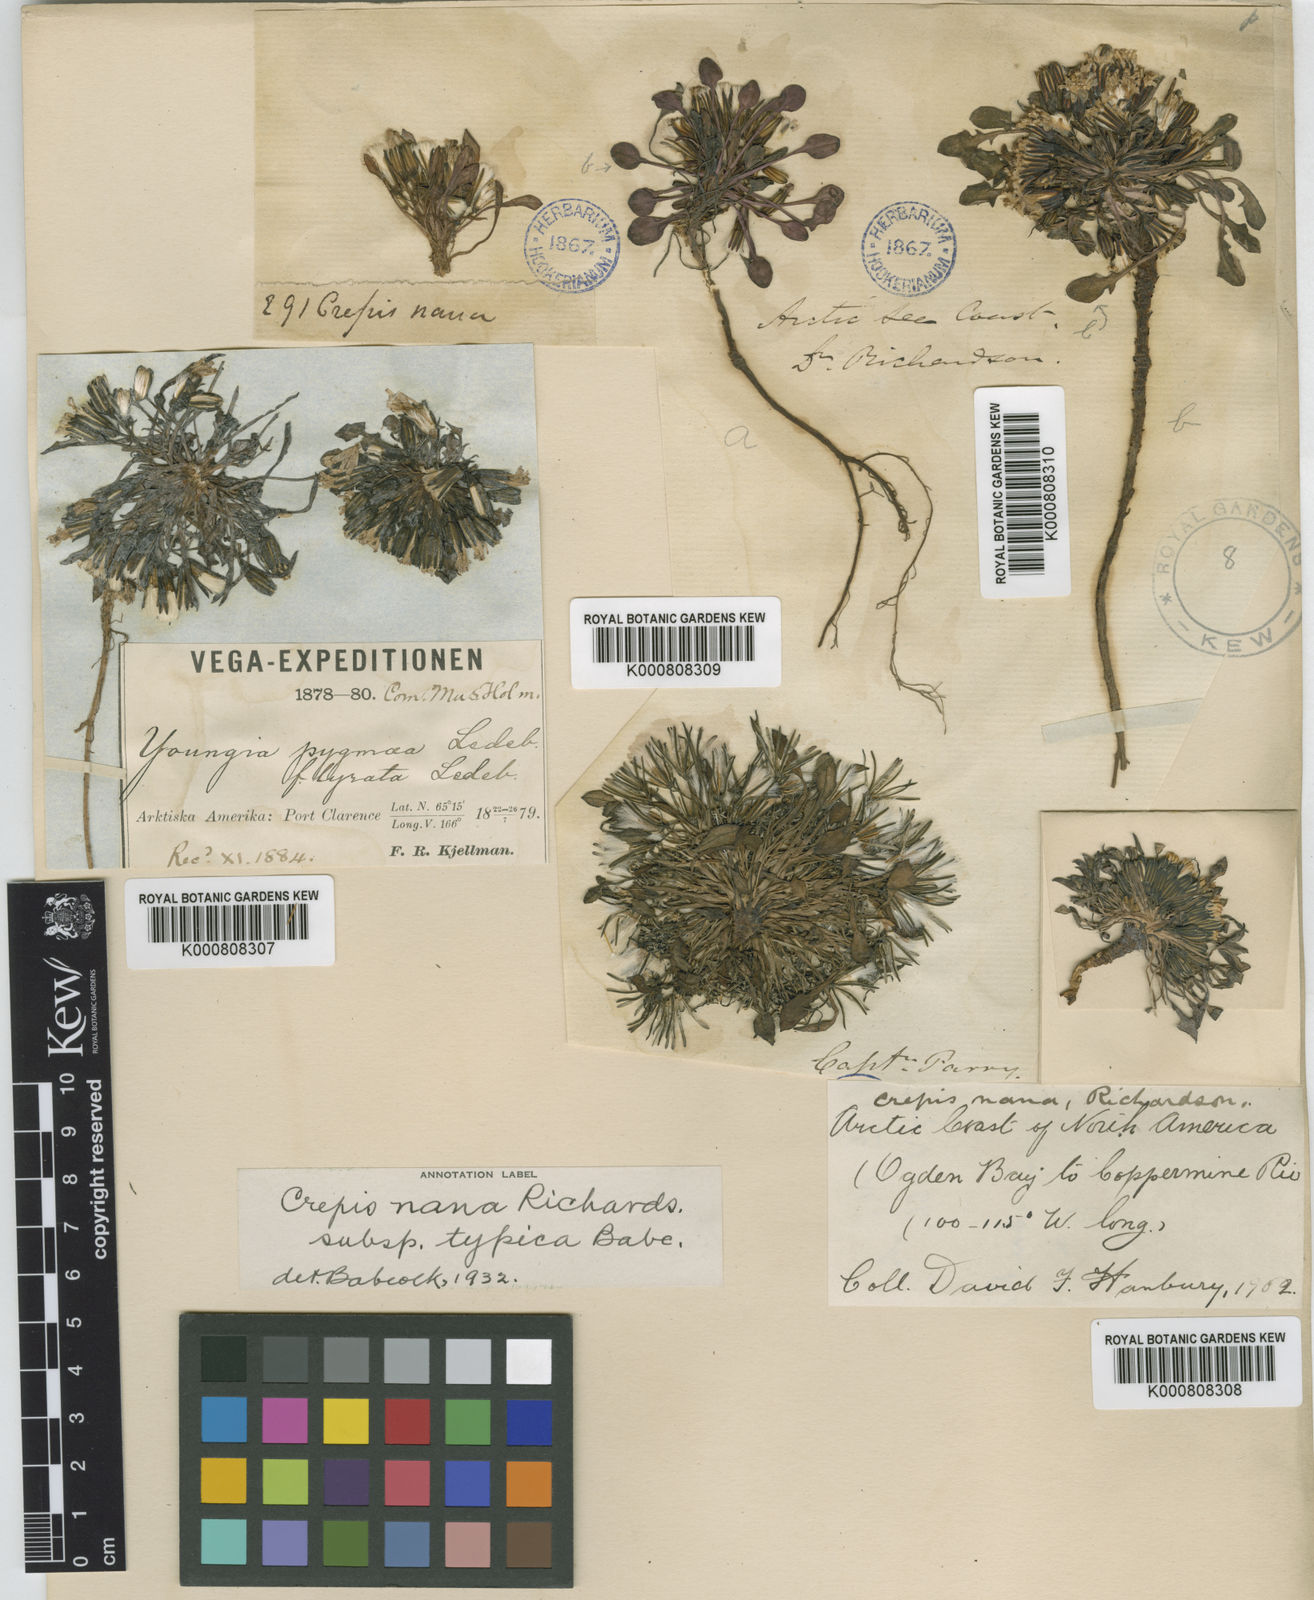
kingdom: Plantae
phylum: Tracheophyta
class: Magnoliopsida
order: Asterales
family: Asteraceae
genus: Askellia
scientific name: Askellia pygmaea
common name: Dwarf alpine hawksbeard
